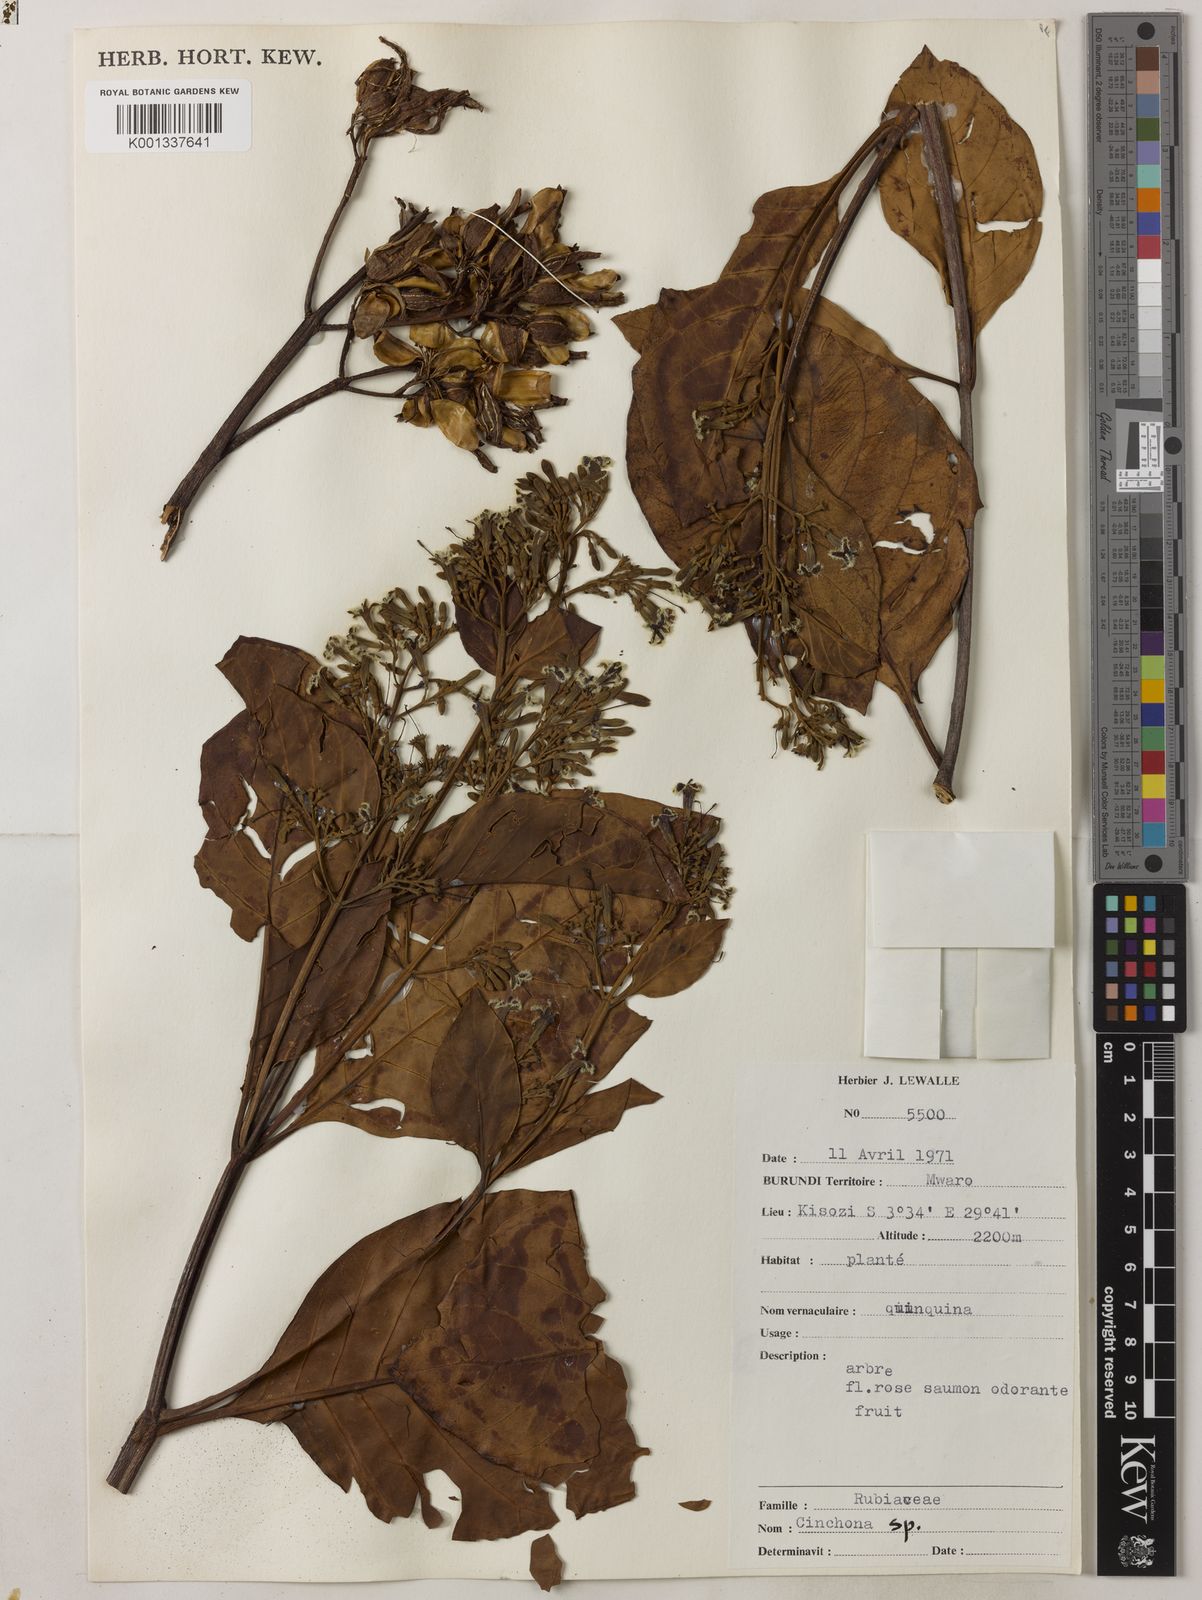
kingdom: Plantae
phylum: Tracheophyta
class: Magnoliopsida
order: Gentianales
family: Rubiaceae
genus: Cinchona
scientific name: Cinchona
